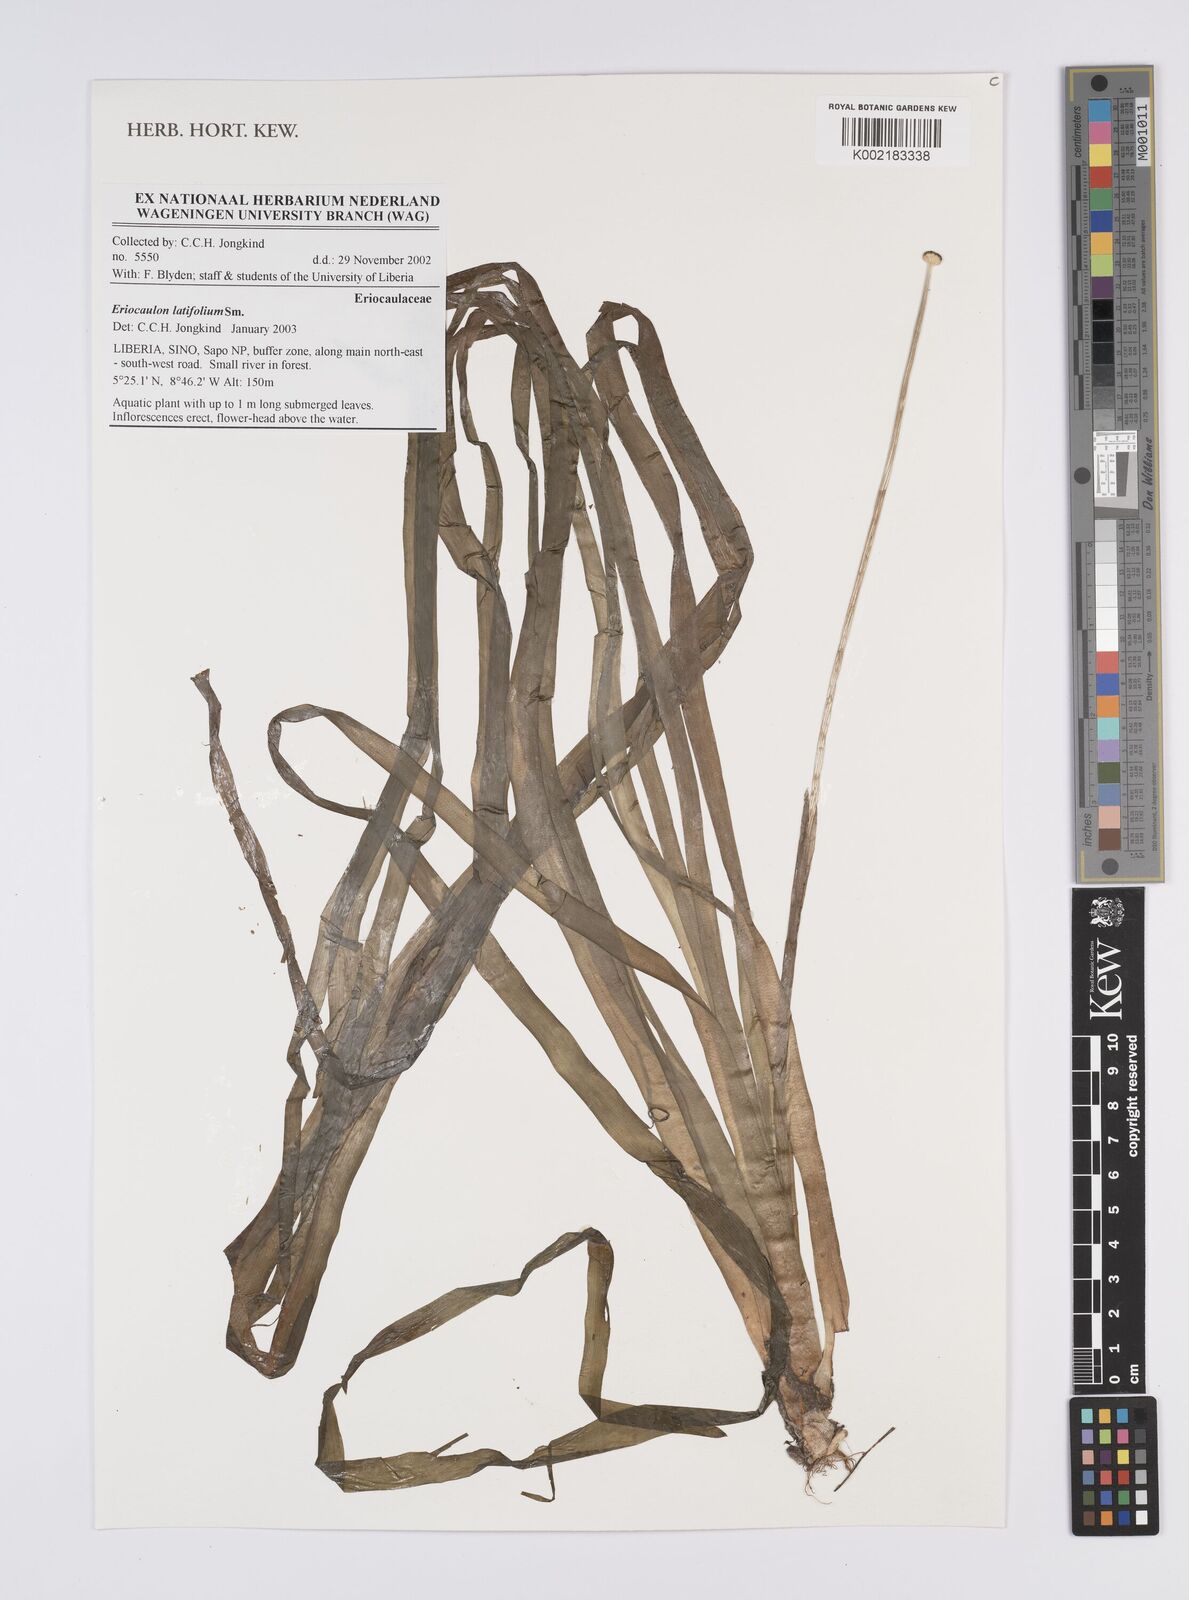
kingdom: Plantae
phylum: Tracheophyta
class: Liliopsida
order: Poales
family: Eriocaulaceae
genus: Eriocaulon
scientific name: Eriocaulon latifolium
